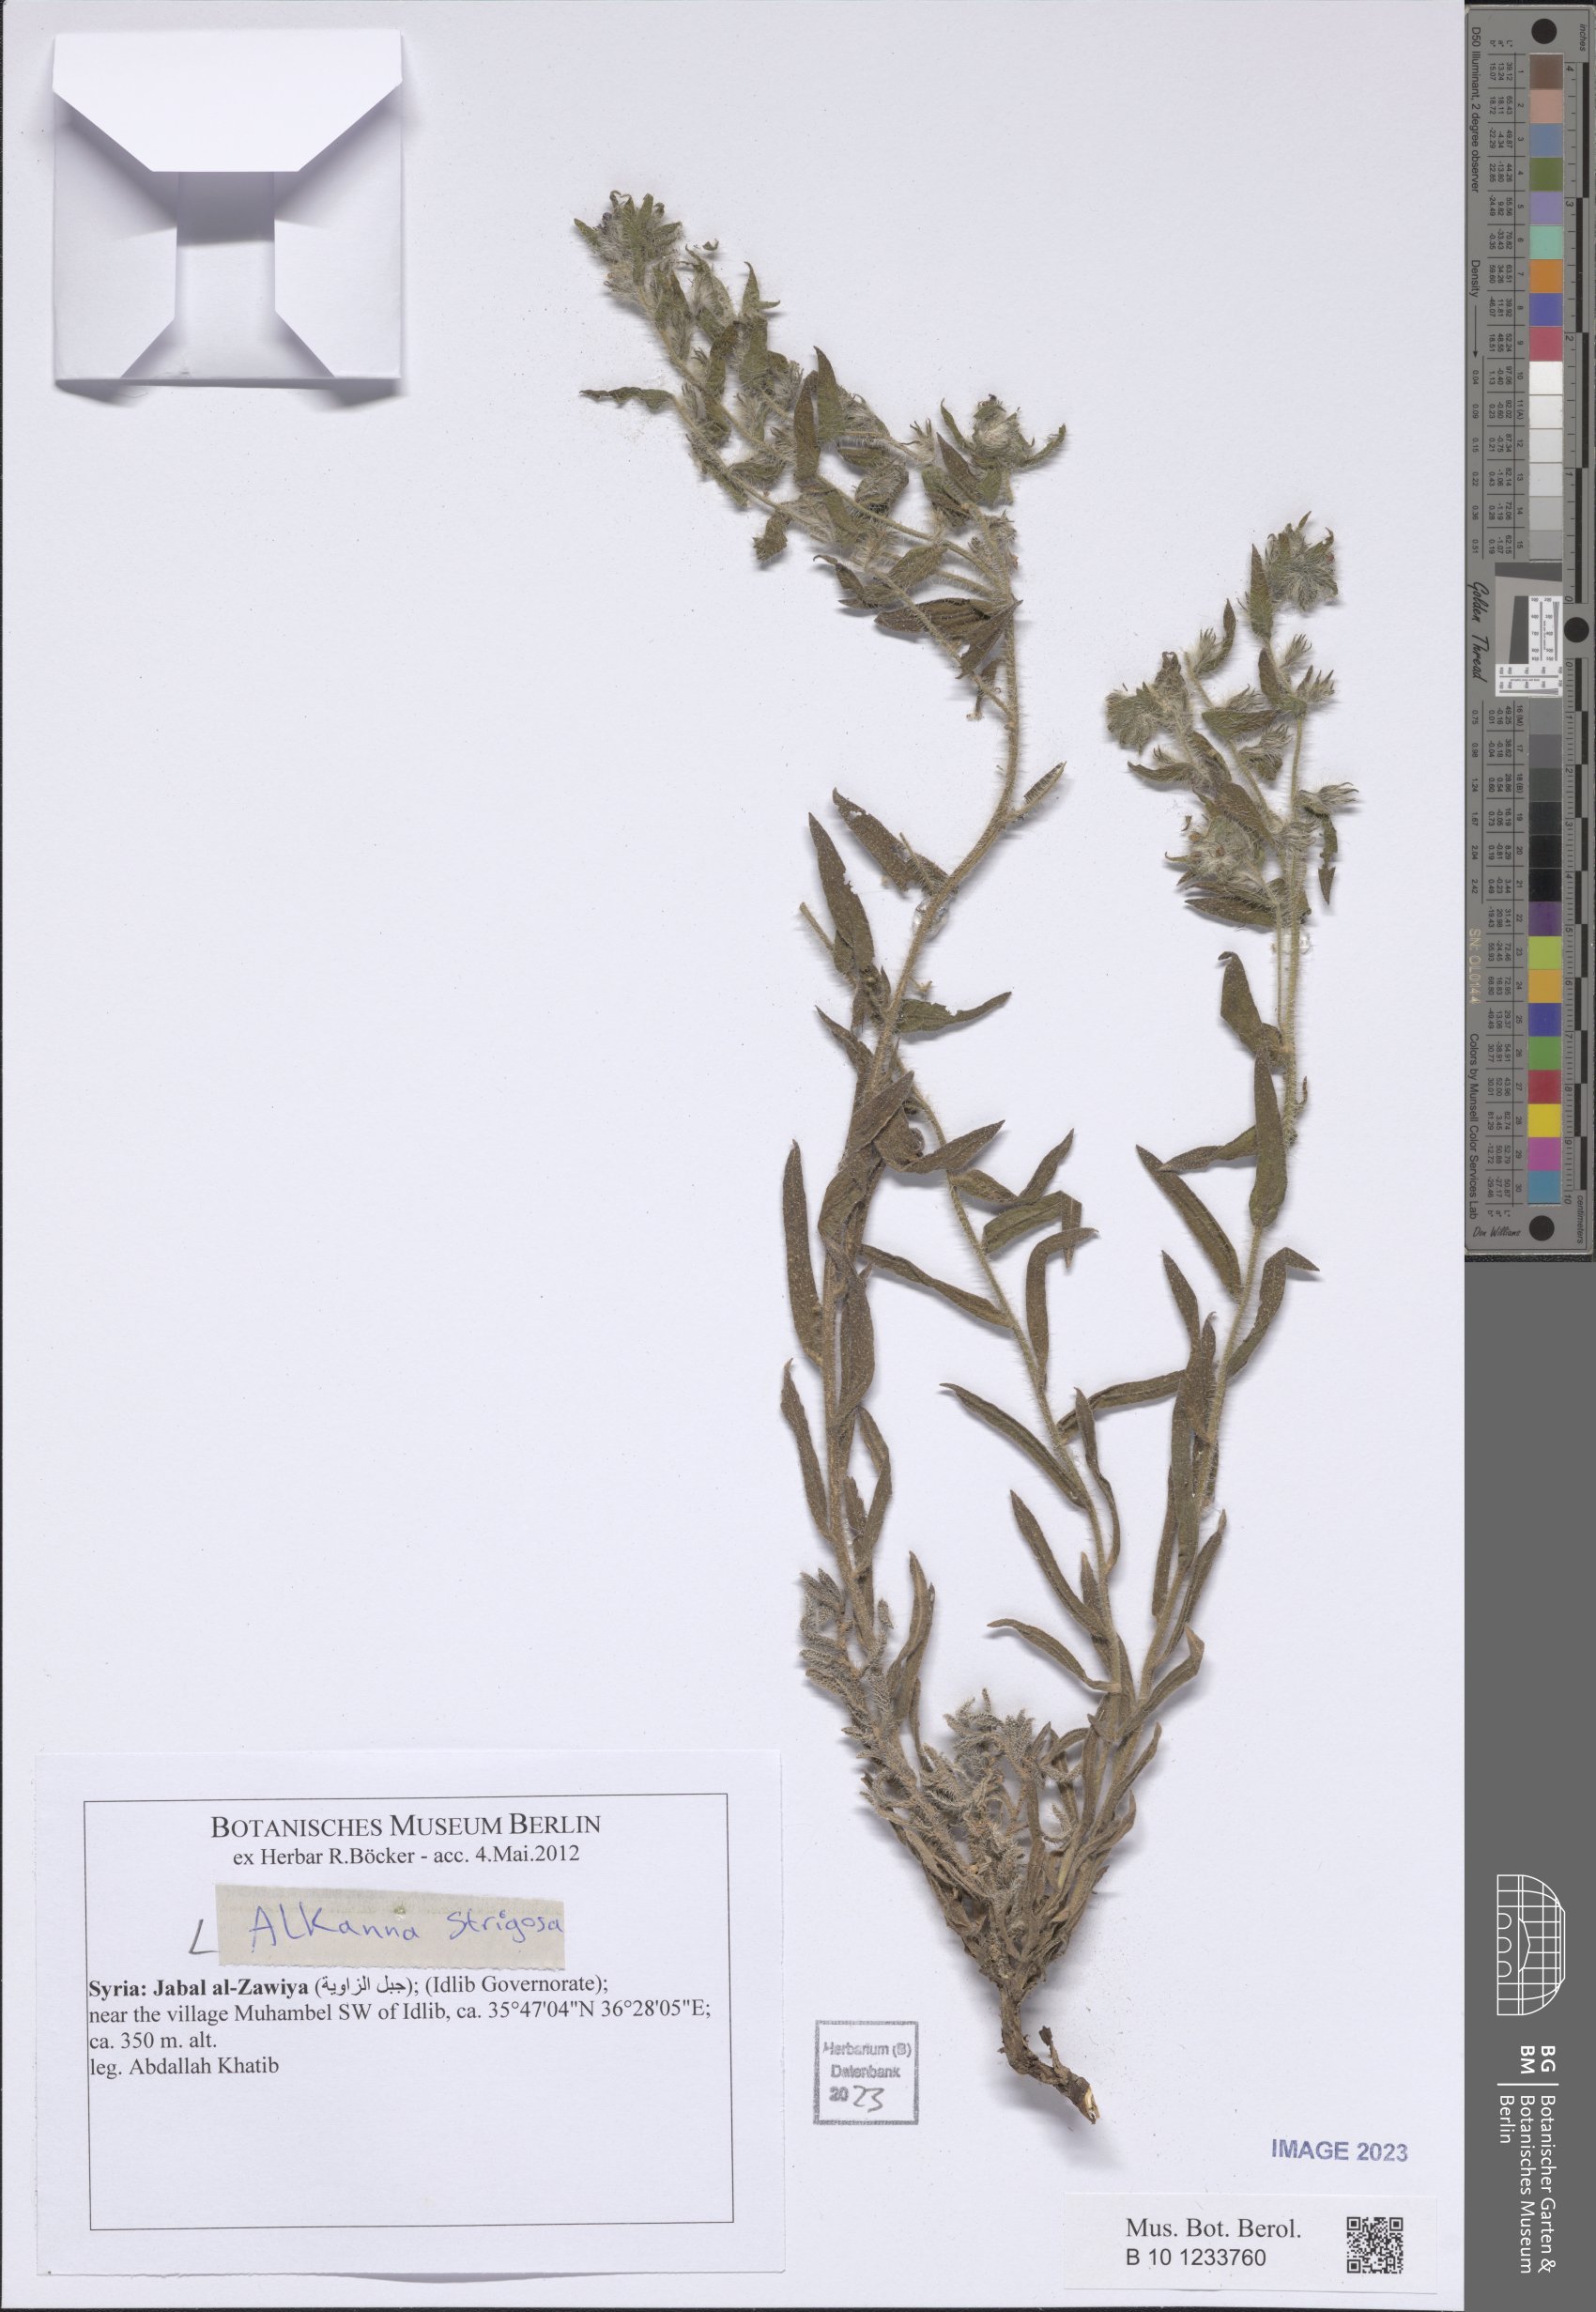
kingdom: Plantae
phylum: Tracheophyta
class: Magnoliopsida
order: Boraginales
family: Boraginaceae
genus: Alkanna
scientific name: Alkanna strigosa
